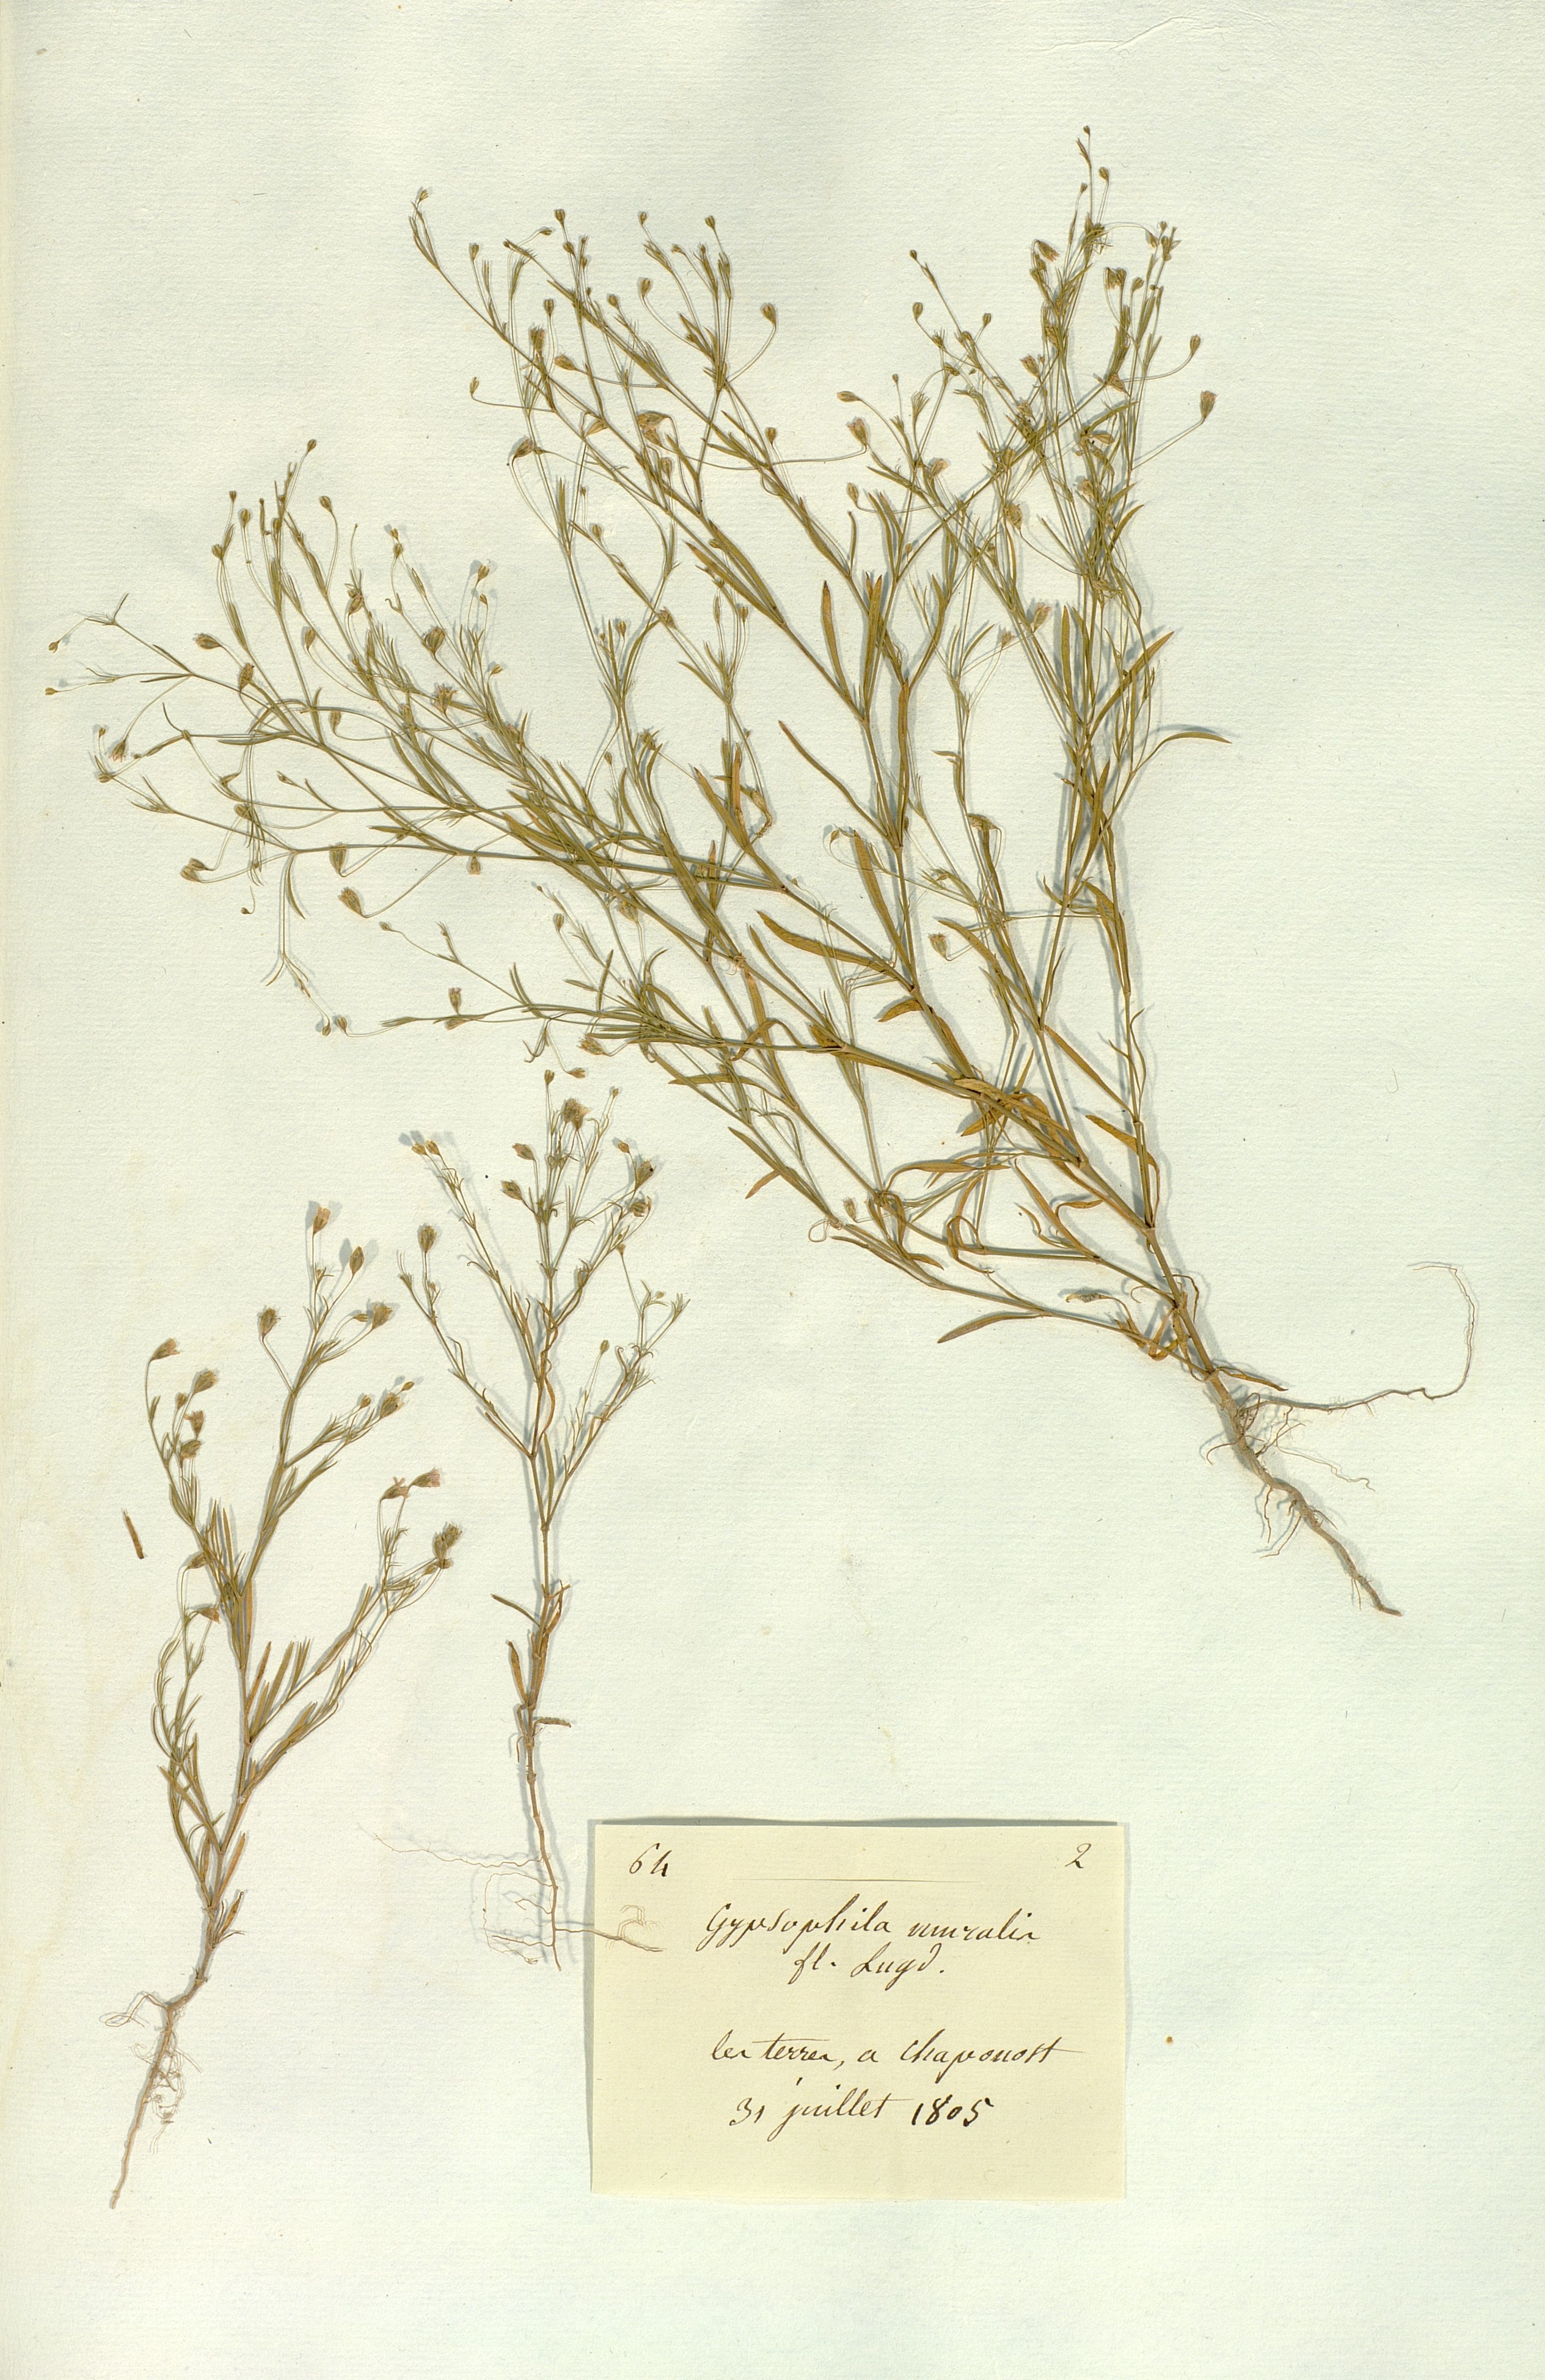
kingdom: Plantae
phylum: Tracheophyta
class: Magnoliopsida
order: Caryophyllales
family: Caryophyllaceae
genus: Psammophiliella
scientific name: Psammophiliella muralis
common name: Cushion baby's-breath
